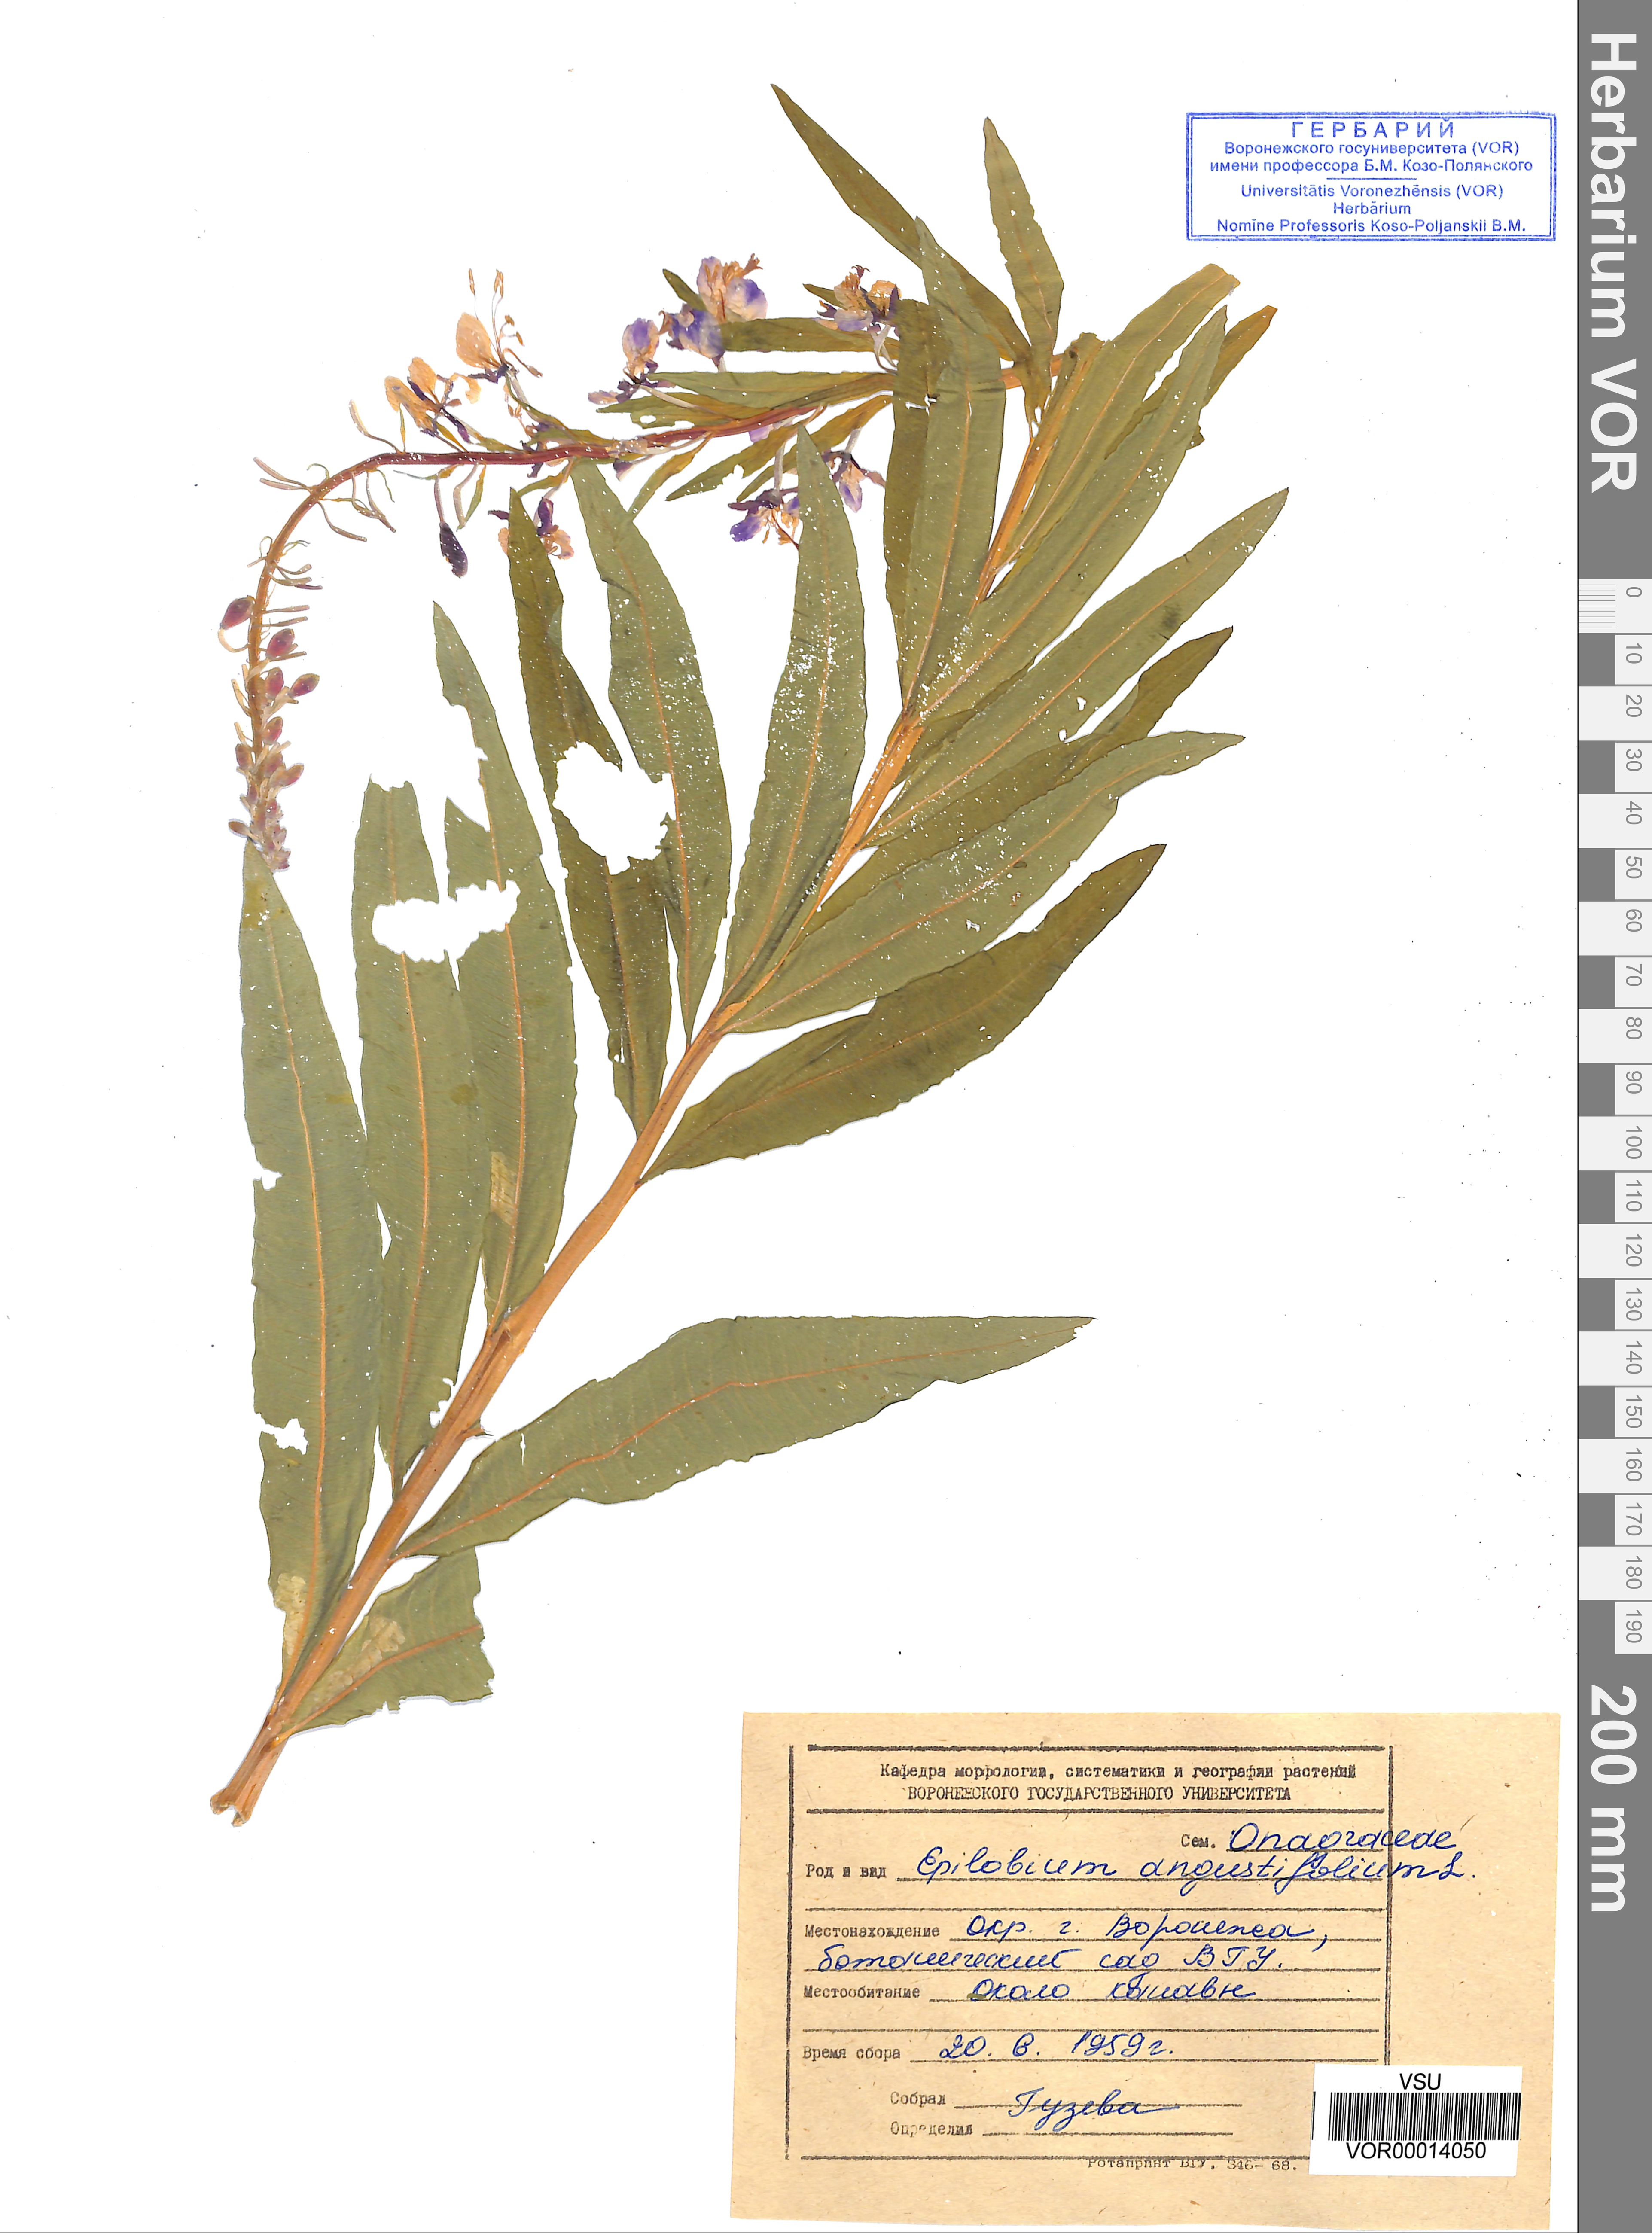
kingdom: Plantae
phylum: Tracheophyta
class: Magnoliopsida
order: Myrtales
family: Onagraceae
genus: Chamaenerion
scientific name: Chamaenerion angustifolium
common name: Fireweed
